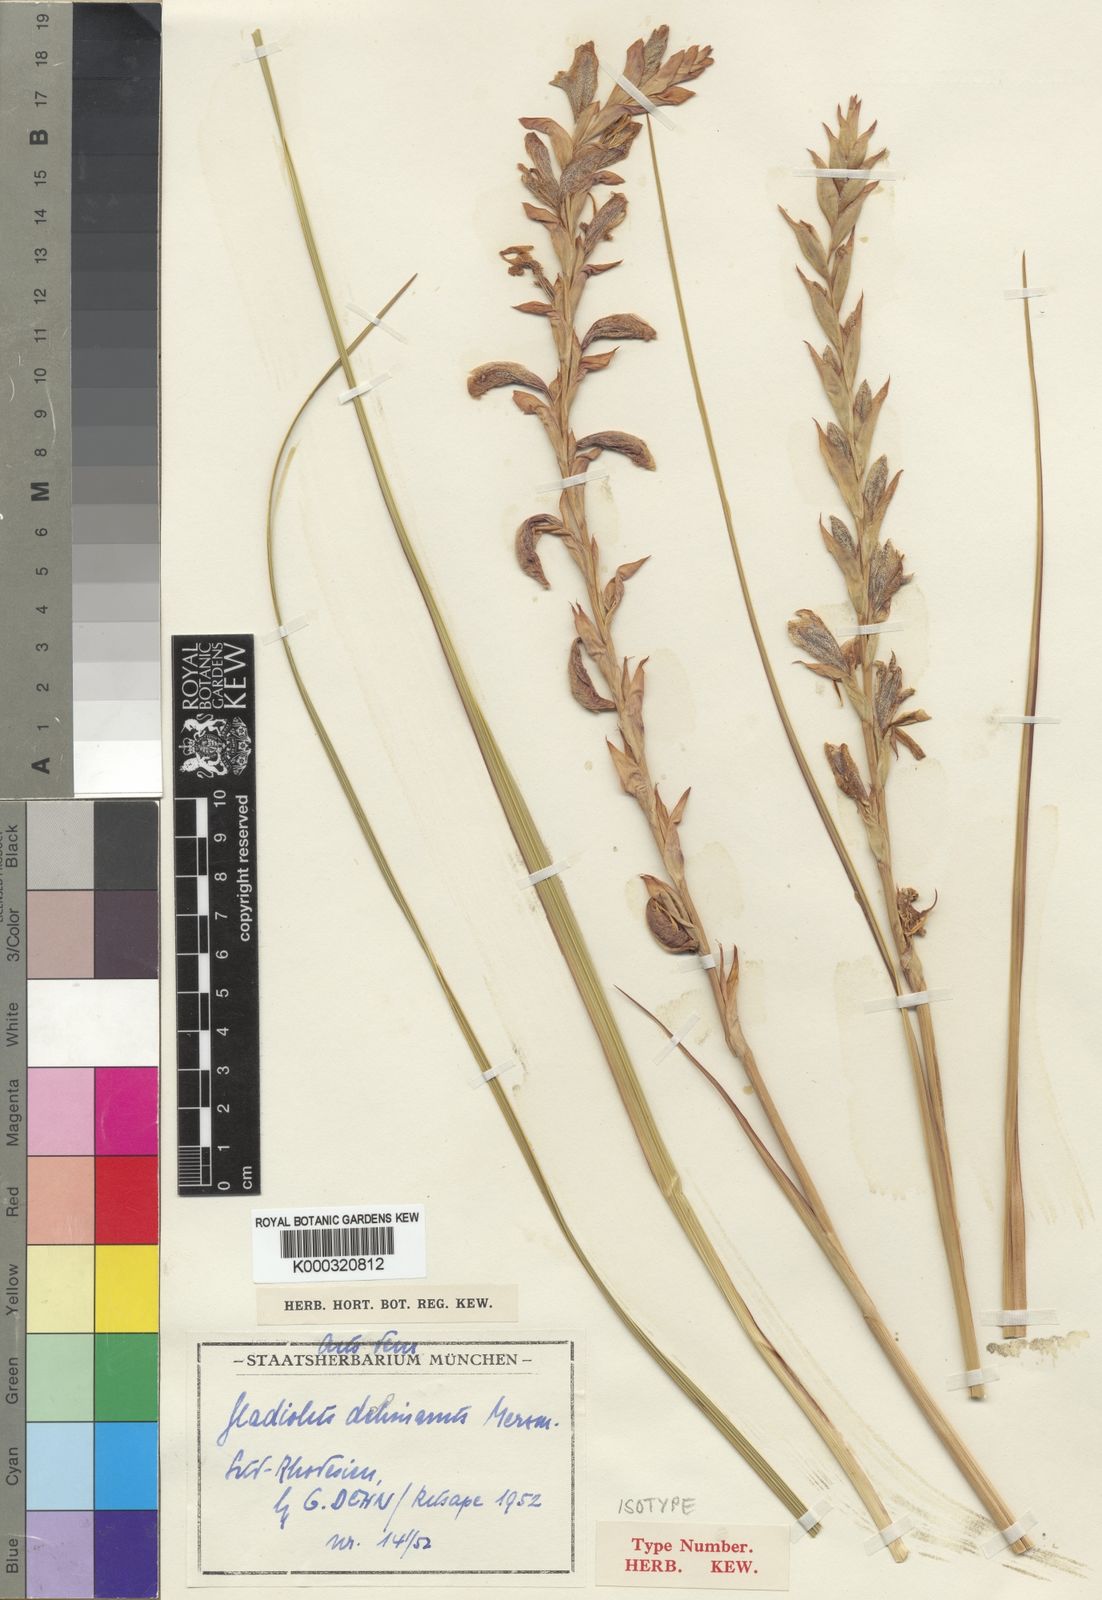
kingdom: Plantae
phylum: Tracheophyta
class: Liliopsida
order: Asparagales
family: Iridaceae
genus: Gladiolus
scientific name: Gladiolus sericeovillosus
